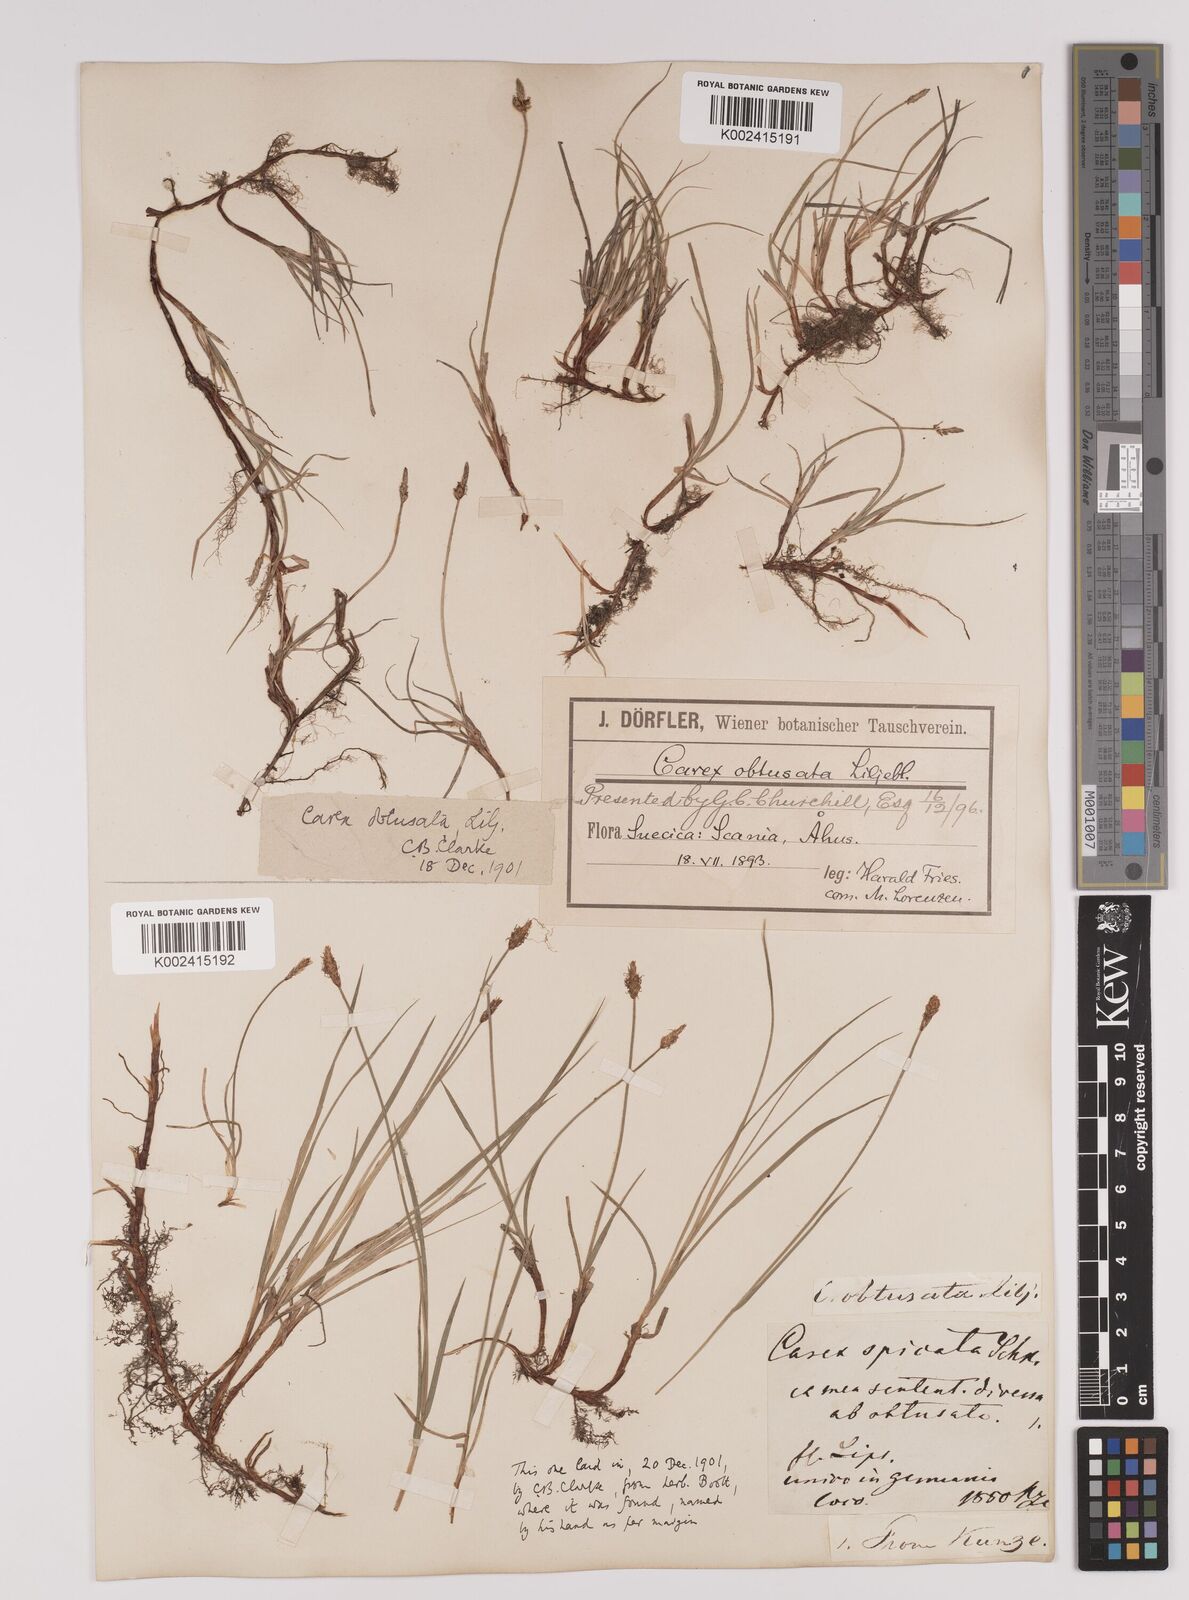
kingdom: Plantae
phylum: Tracheophyta
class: Liliopsida
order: Poales
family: Cyperaceae
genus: Carex
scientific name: Carex obtusata
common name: Blunt sedge
